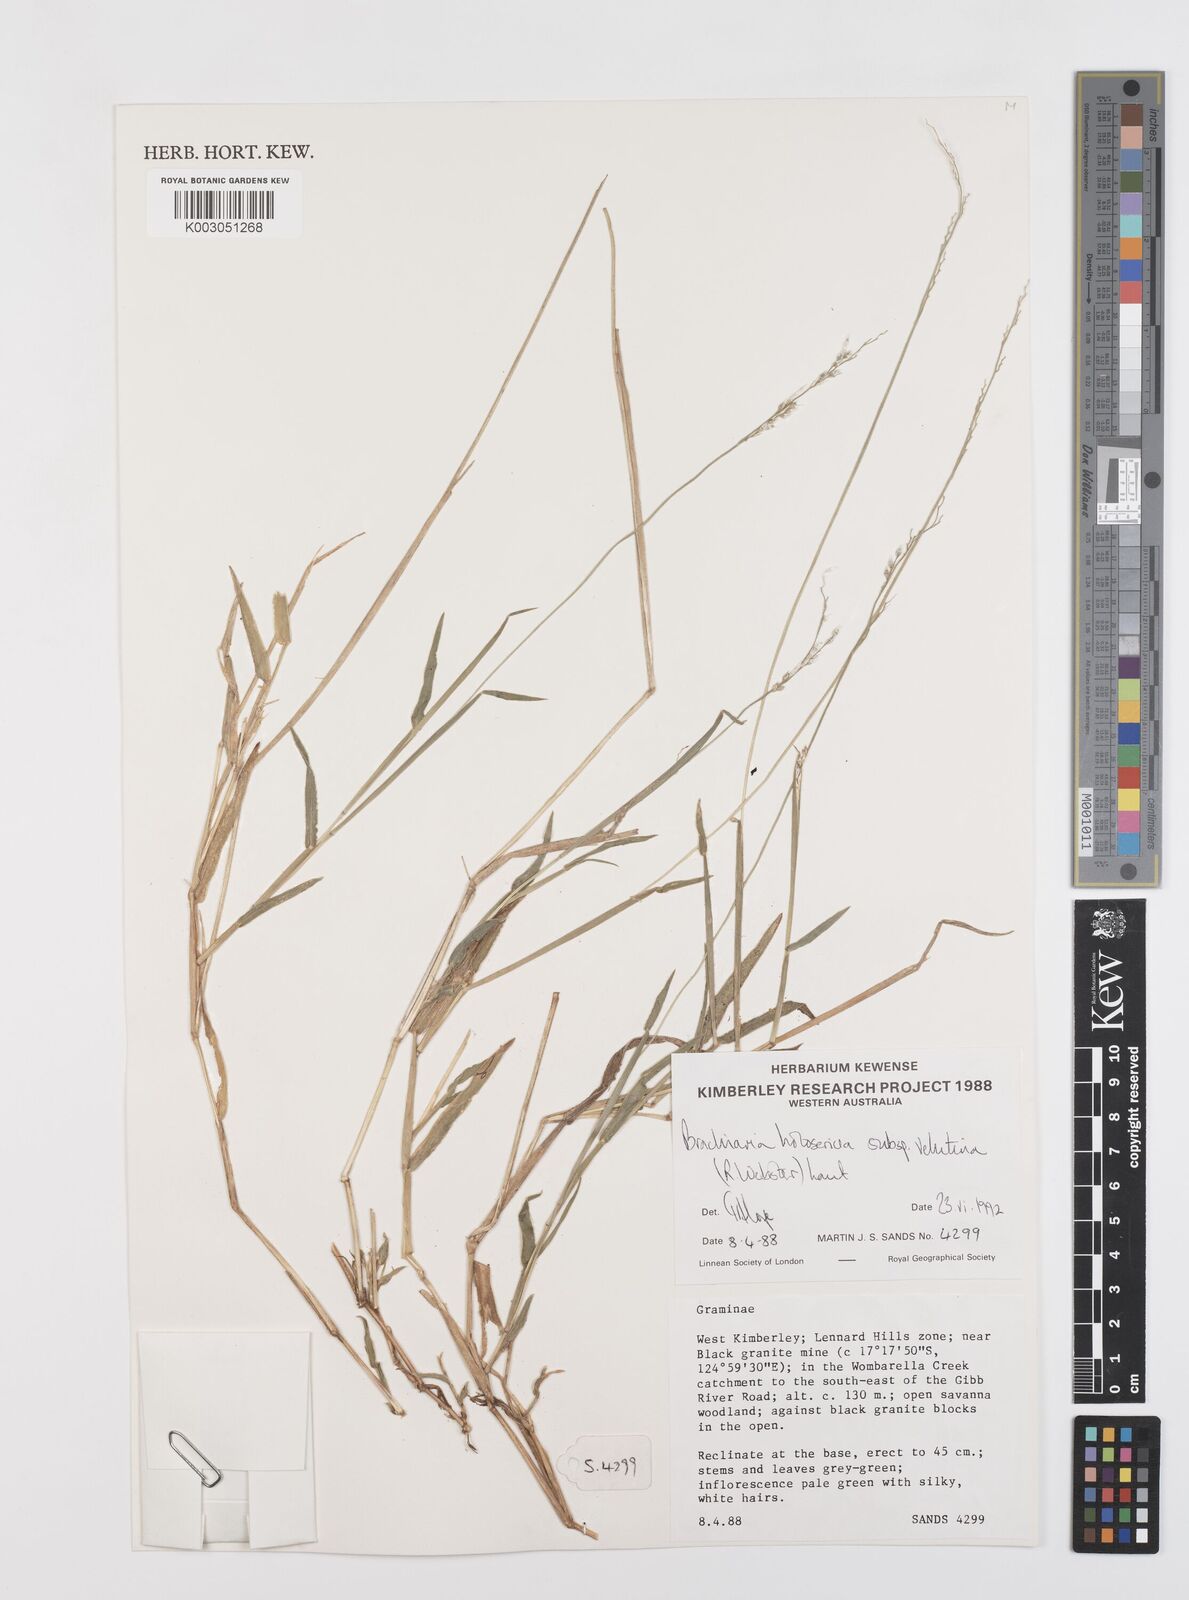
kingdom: Plantae
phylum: Tracheophyta
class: Liliopsida
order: Poales
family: Poaceae
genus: Urochloa
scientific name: Urochloa holosericea
